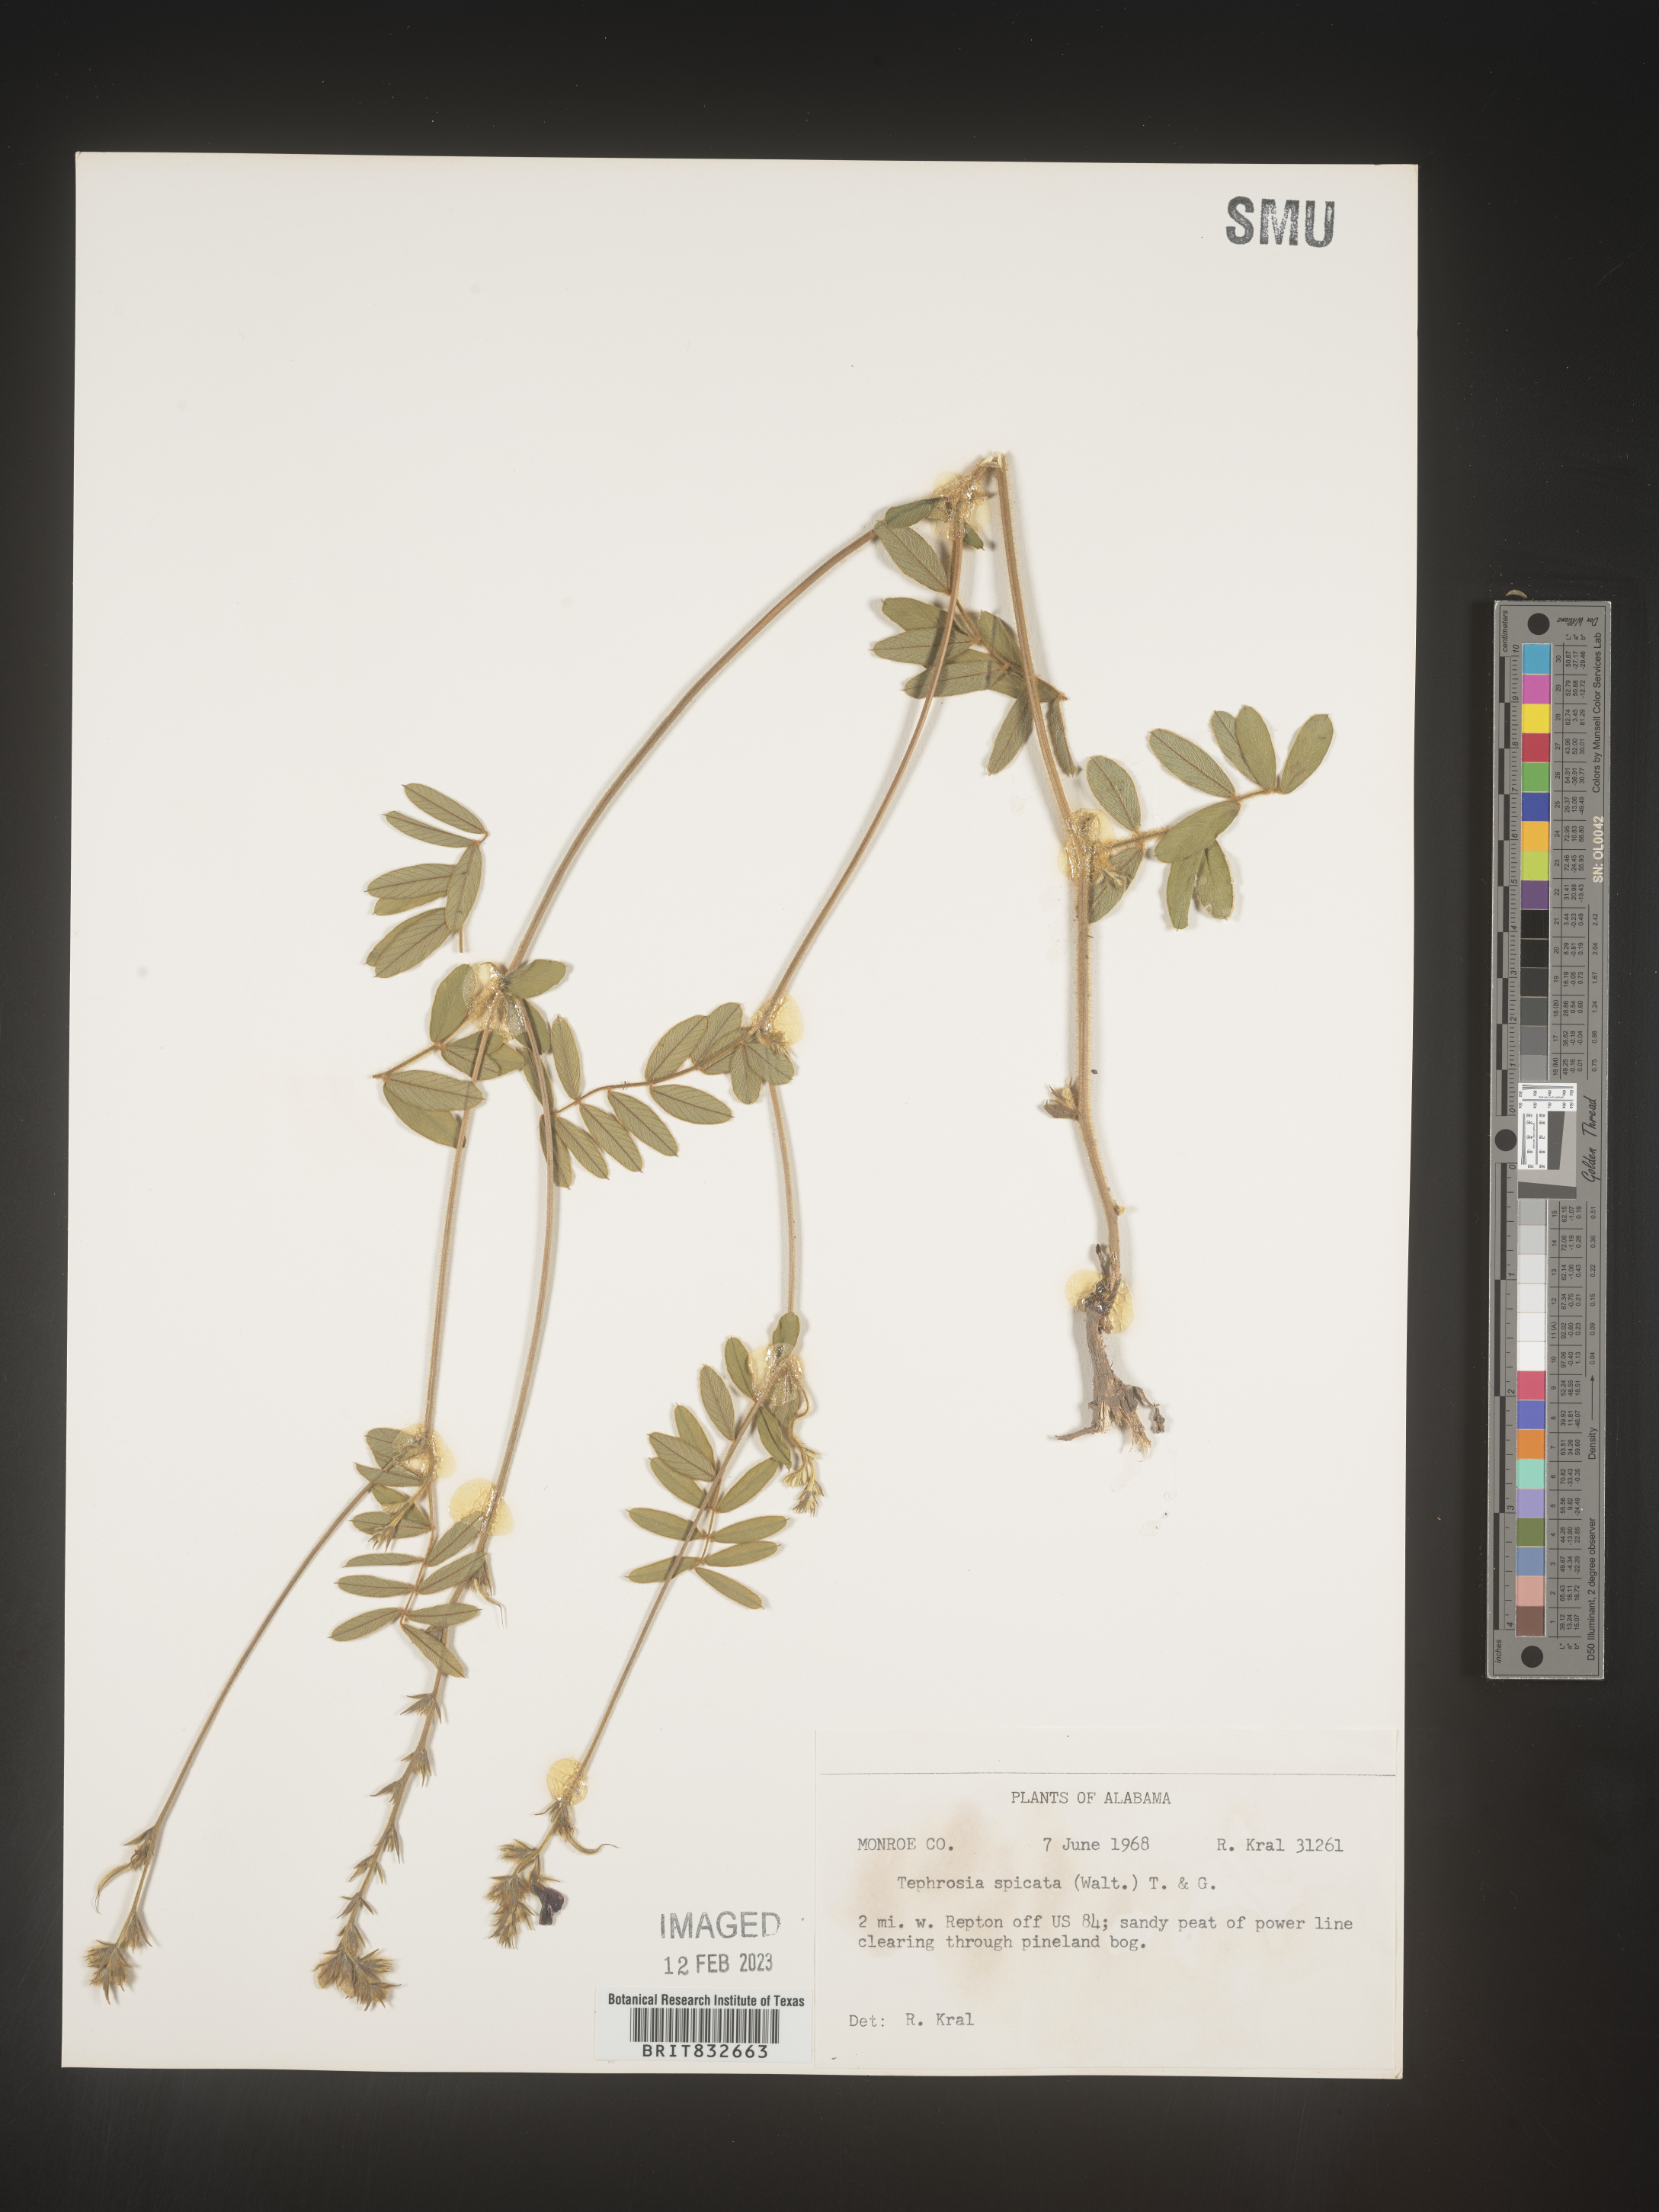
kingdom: Plantae
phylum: Tracheophyta
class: Magnoliopsida
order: Fabales
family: Fabaceae
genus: Tephrosia
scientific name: Tephrosia spicata
